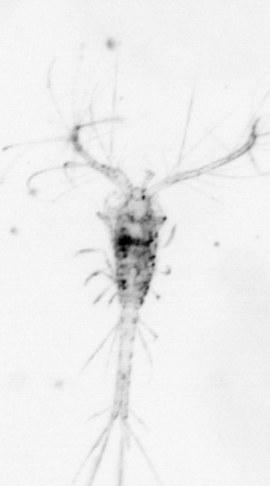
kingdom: Animalia
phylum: Arthropoda
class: Copepoda
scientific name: Copepoda
